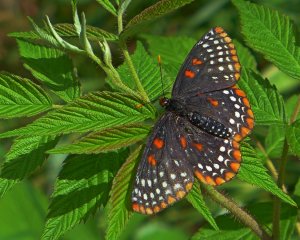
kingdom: Animalia
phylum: Arthropoda
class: Insecta
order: Lepidoptera
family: Nymphalidae
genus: Euphydryas
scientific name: Euphydryas phaeton
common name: Baltimore Checkerspot
